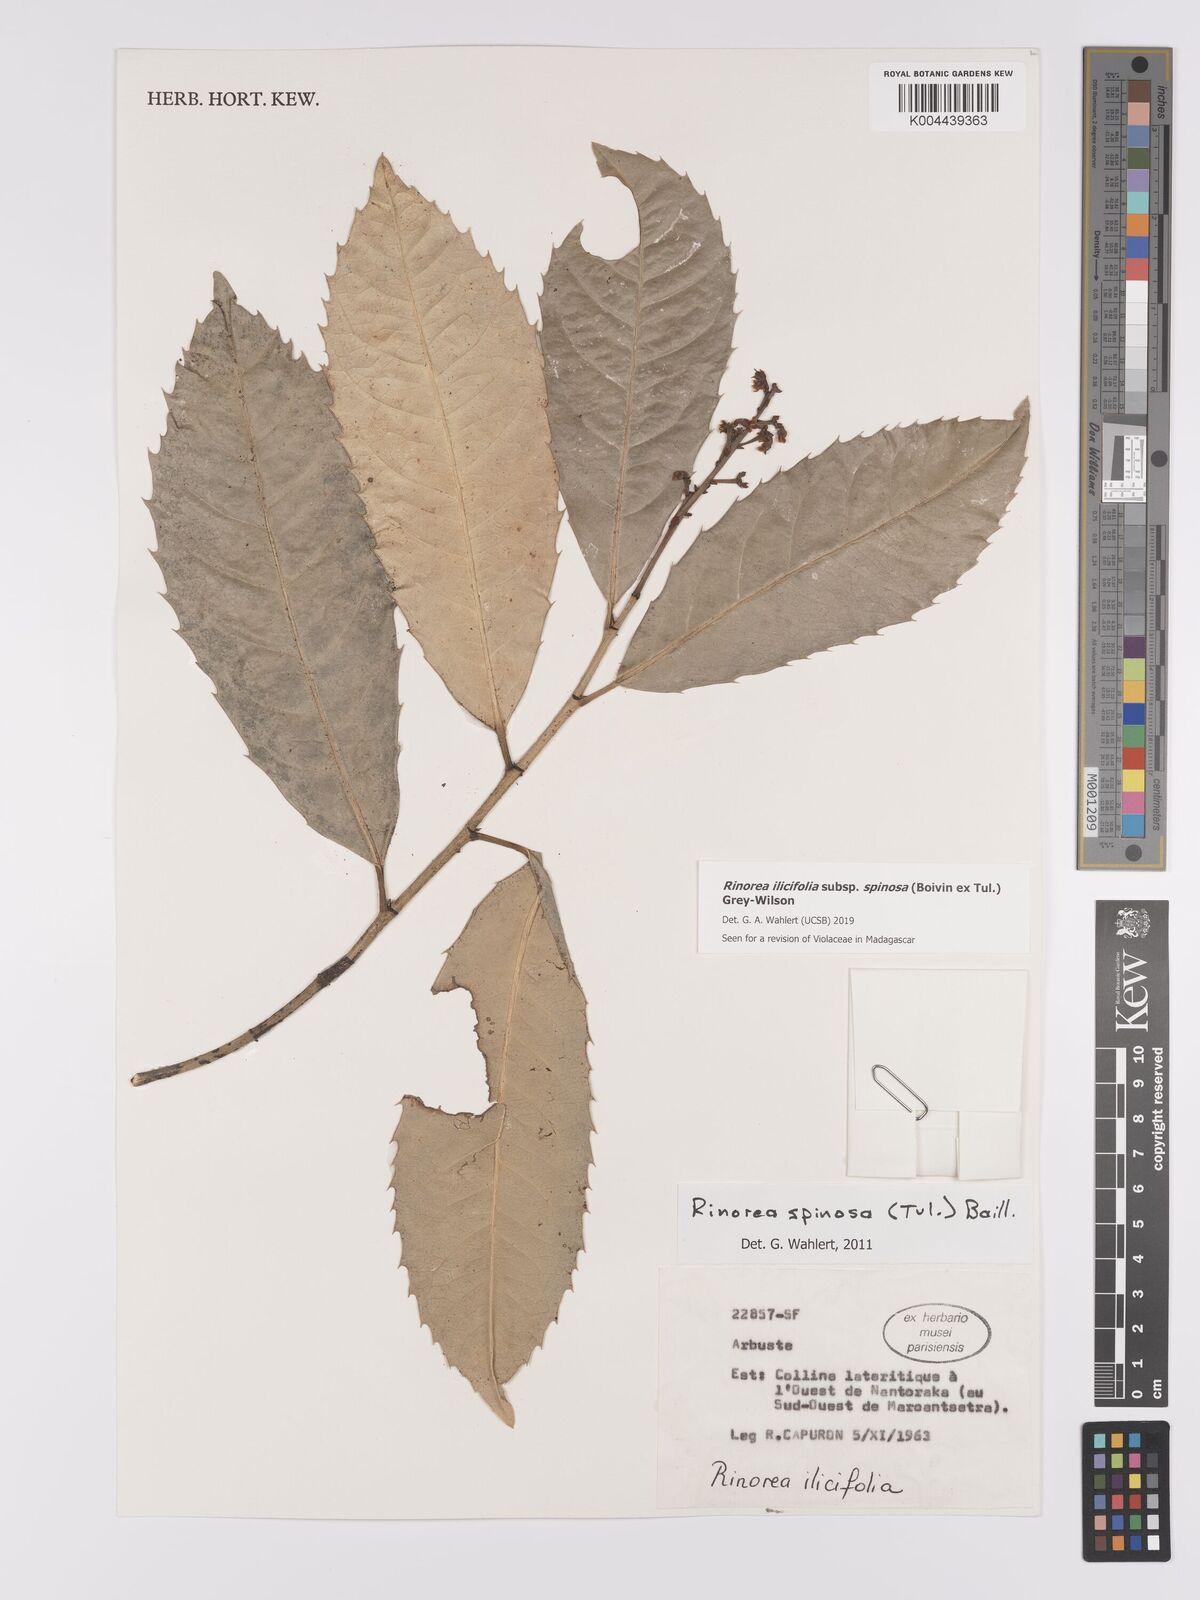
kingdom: Plantae
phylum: Tracheophyta
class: Magnoliopsida
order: Malpighiales
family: Violaceae
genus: Rinorea
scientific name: Rinorea spinosa
